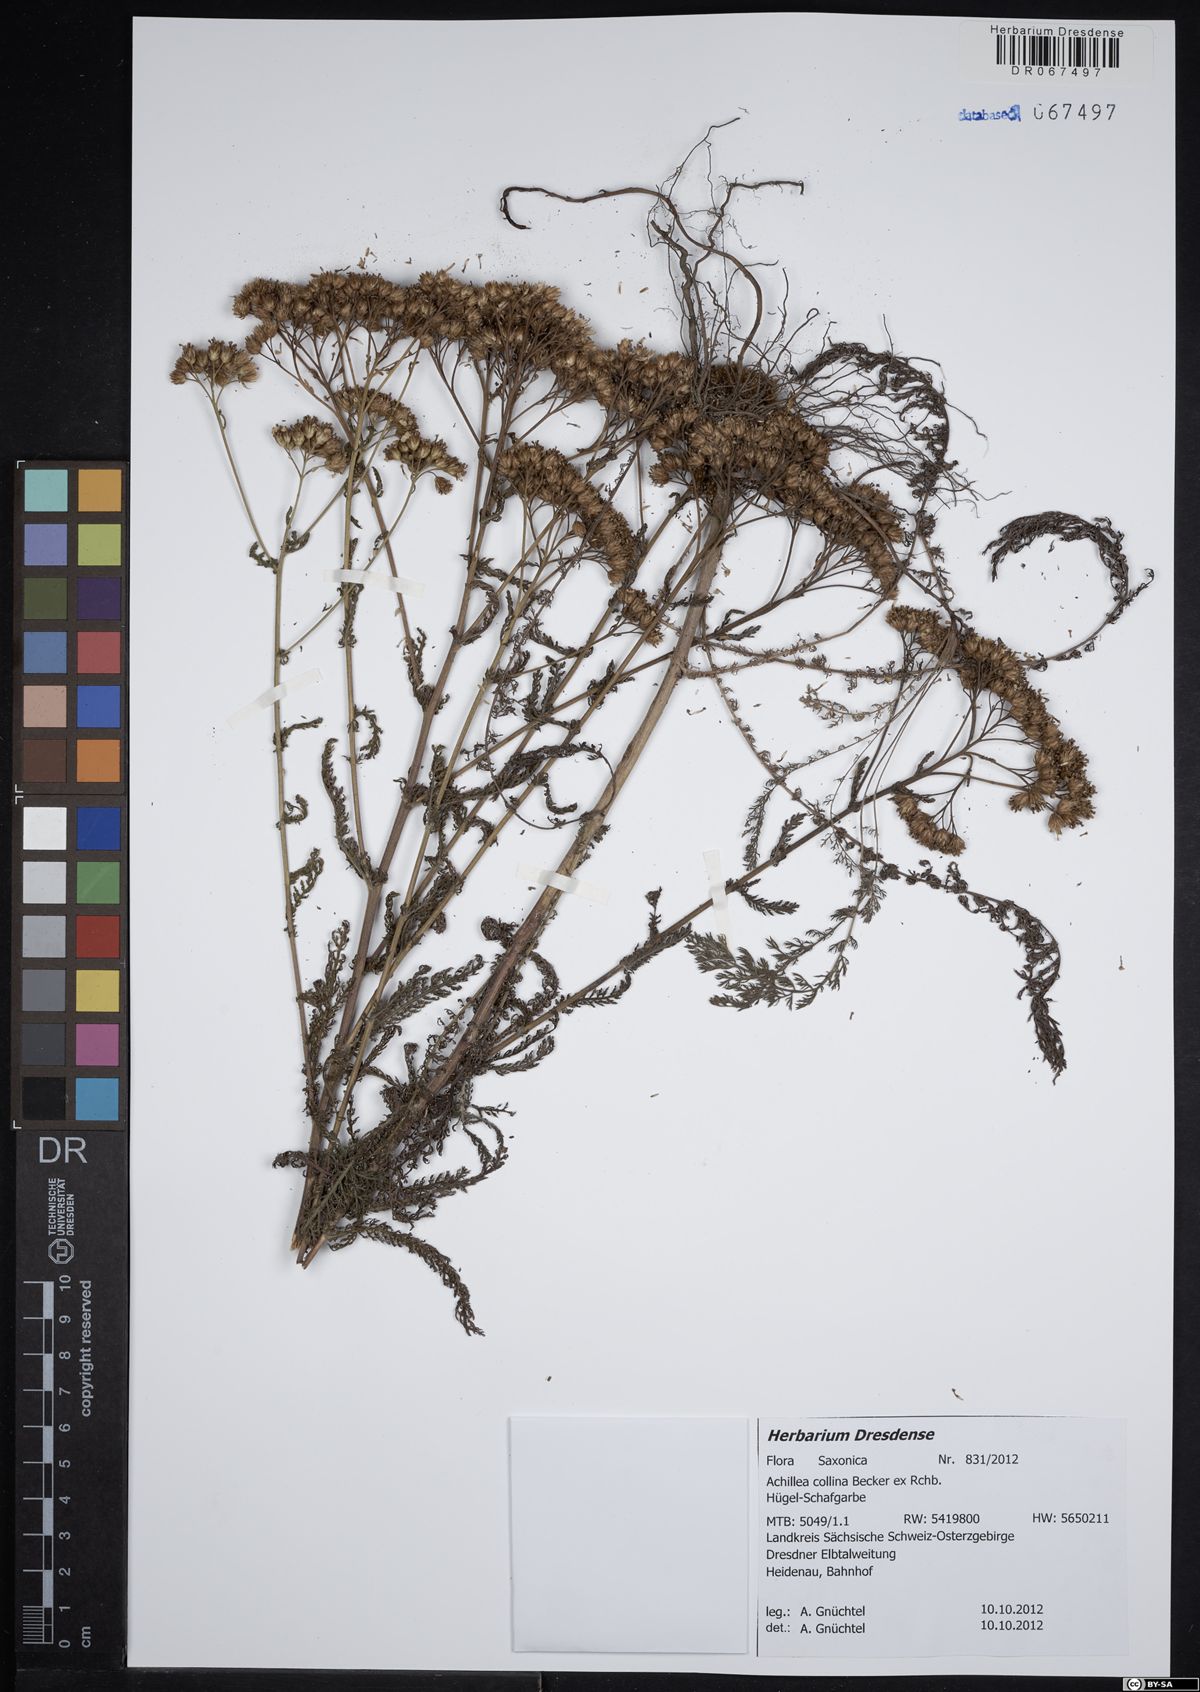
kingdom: Plantae
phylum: Tracheophyta
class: Magnoliopsida
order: Asterales
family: Asteraceae
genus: Achillea
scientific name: Achillea collina
